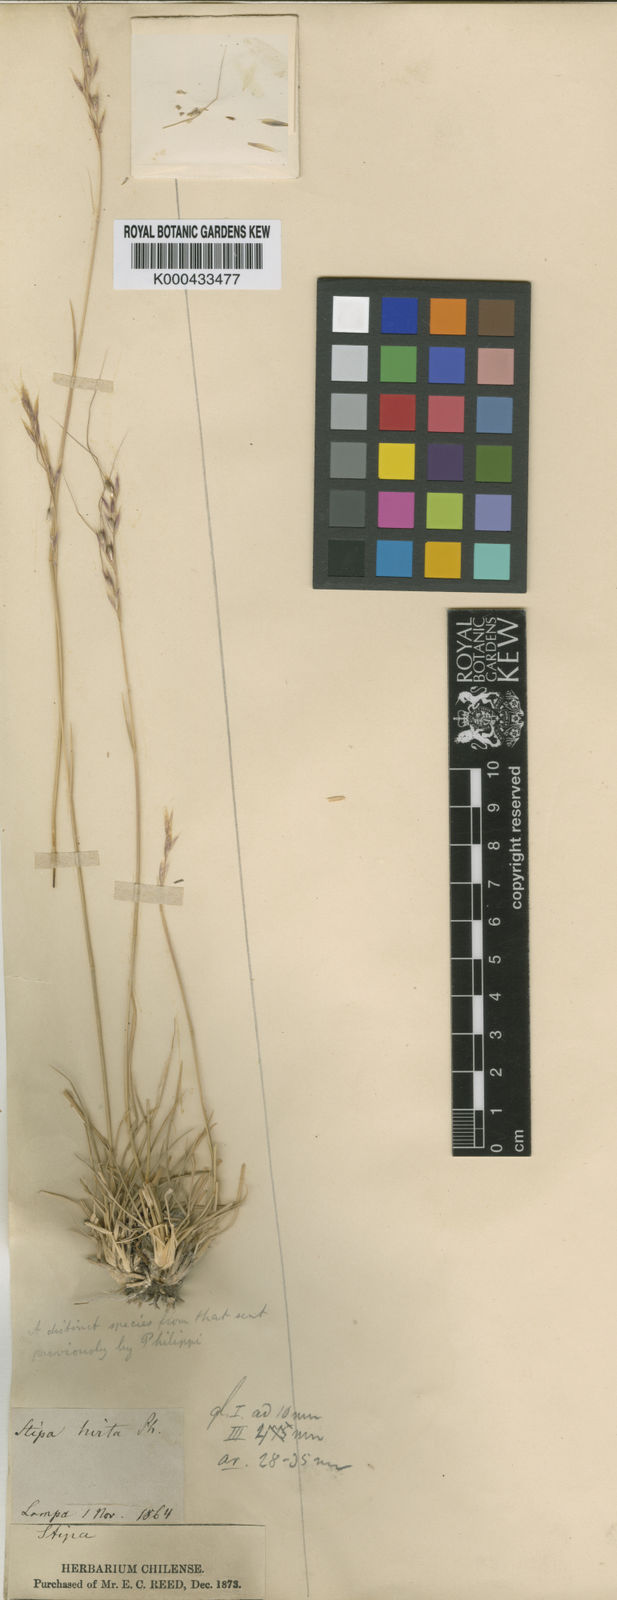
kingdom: Plantae
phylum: Tracheophyta
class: Liliopsida
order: Poales
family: Poaceae
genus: Nassella
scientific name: Nassella duriuscula
